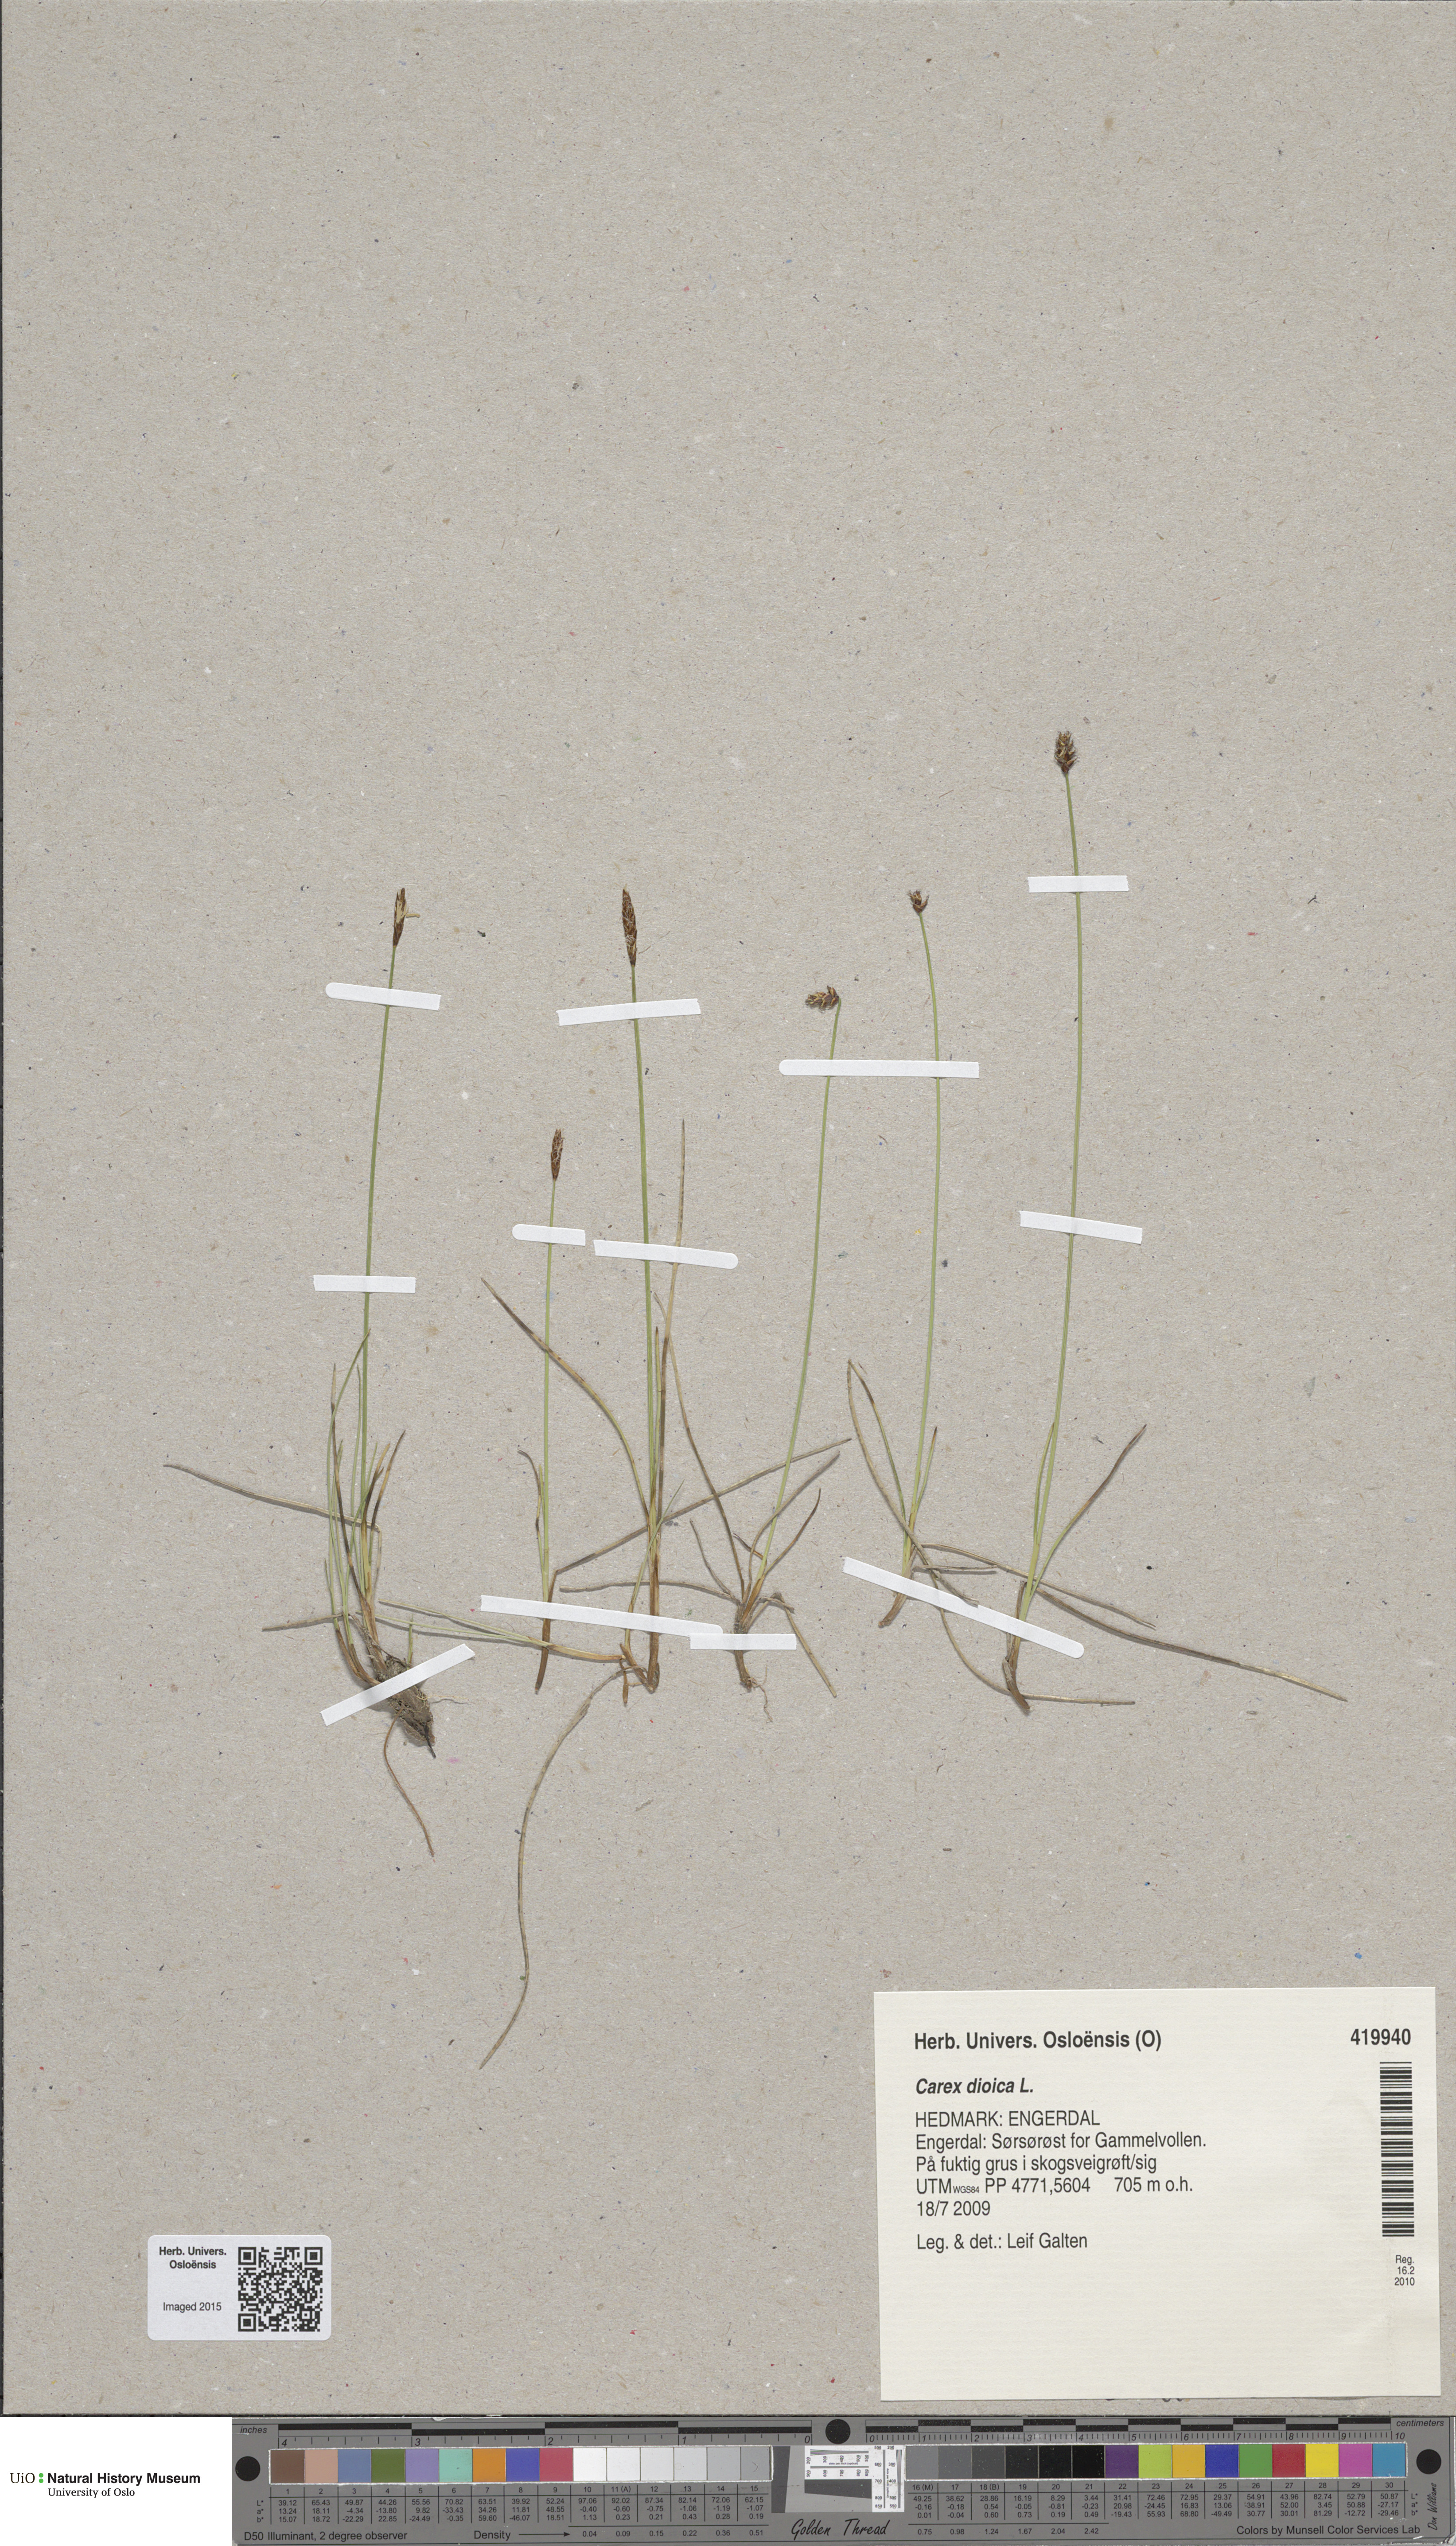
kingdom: Plantae
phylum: Tracheophyta
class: Liliopsida
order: Poales
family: Cyperaceae
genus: Carex
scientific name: Carex dioica
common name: Dioecious sedge
